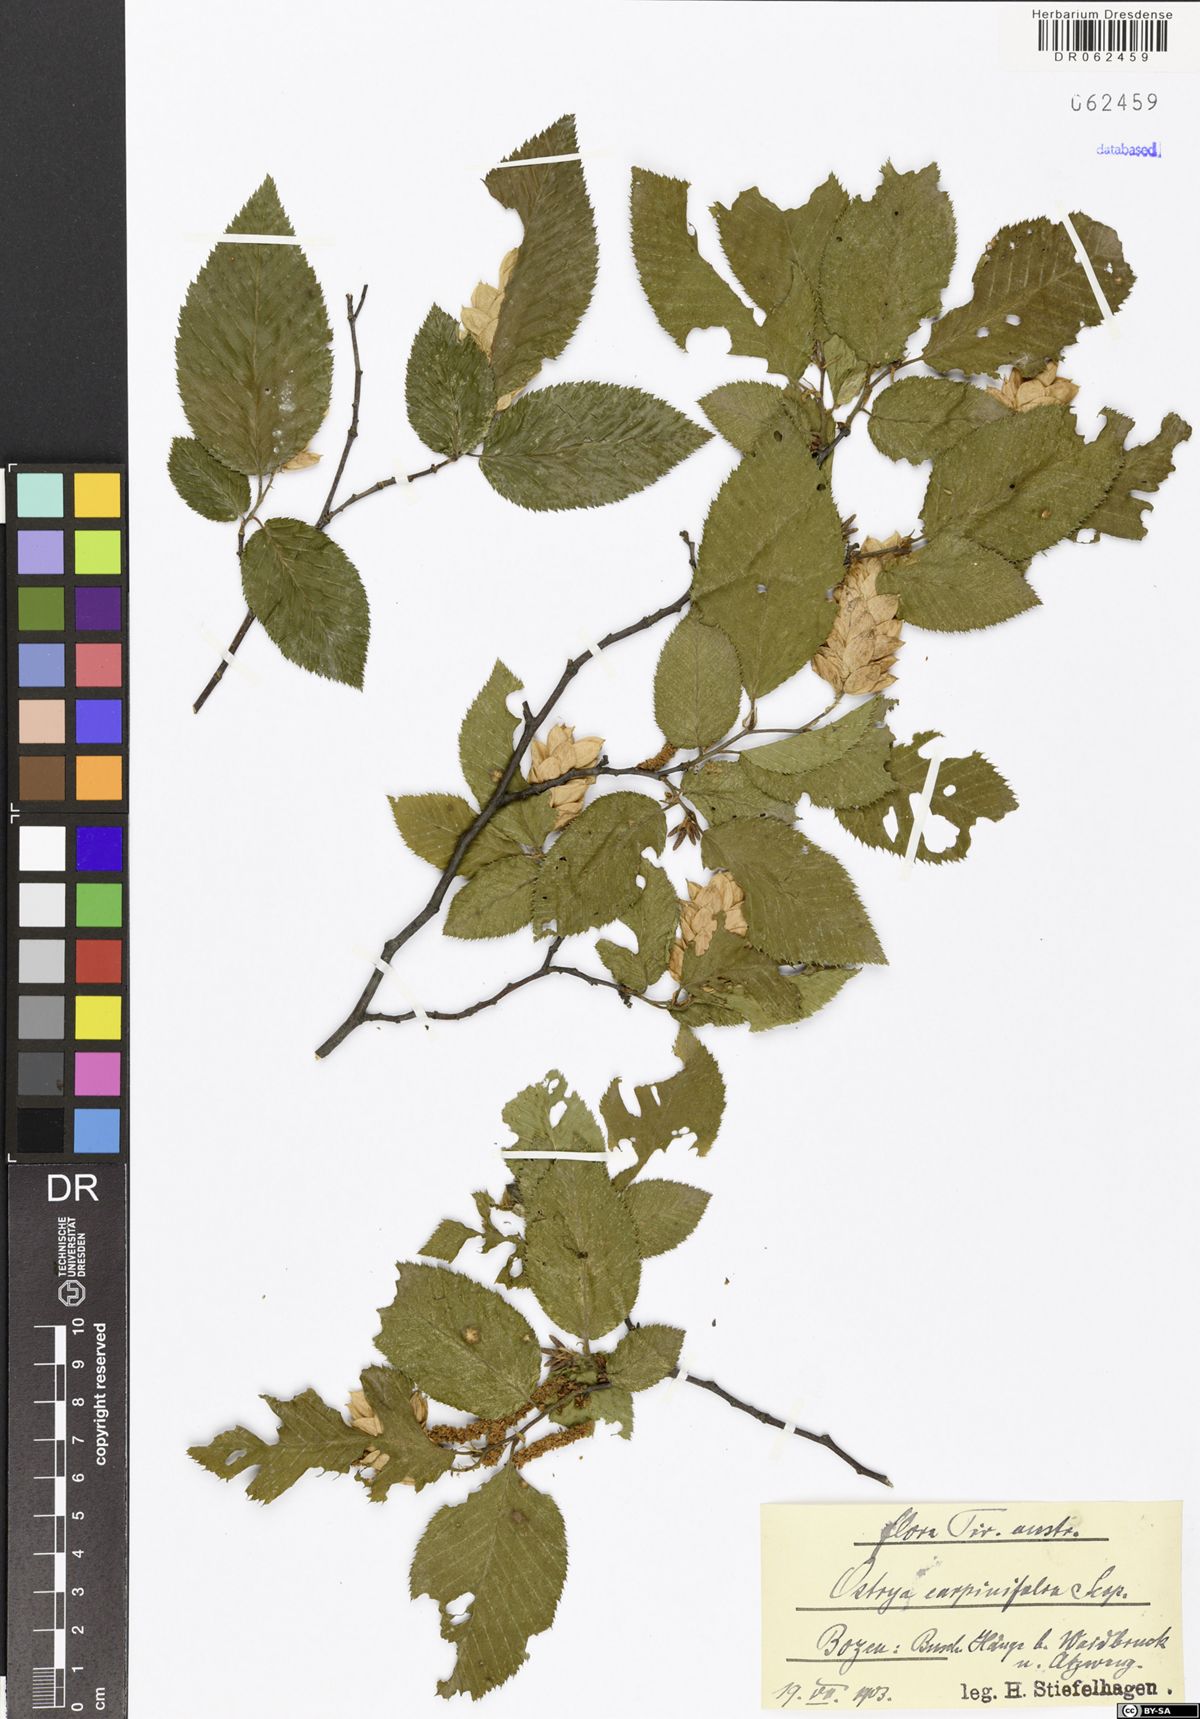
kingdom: Plantae
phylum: Tracheophyta
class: Magnoliopsida
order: Fagales
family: Betulaceae
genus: Ostrya
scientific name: Ostrya carpinifolia
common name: European hop-hornbeam
